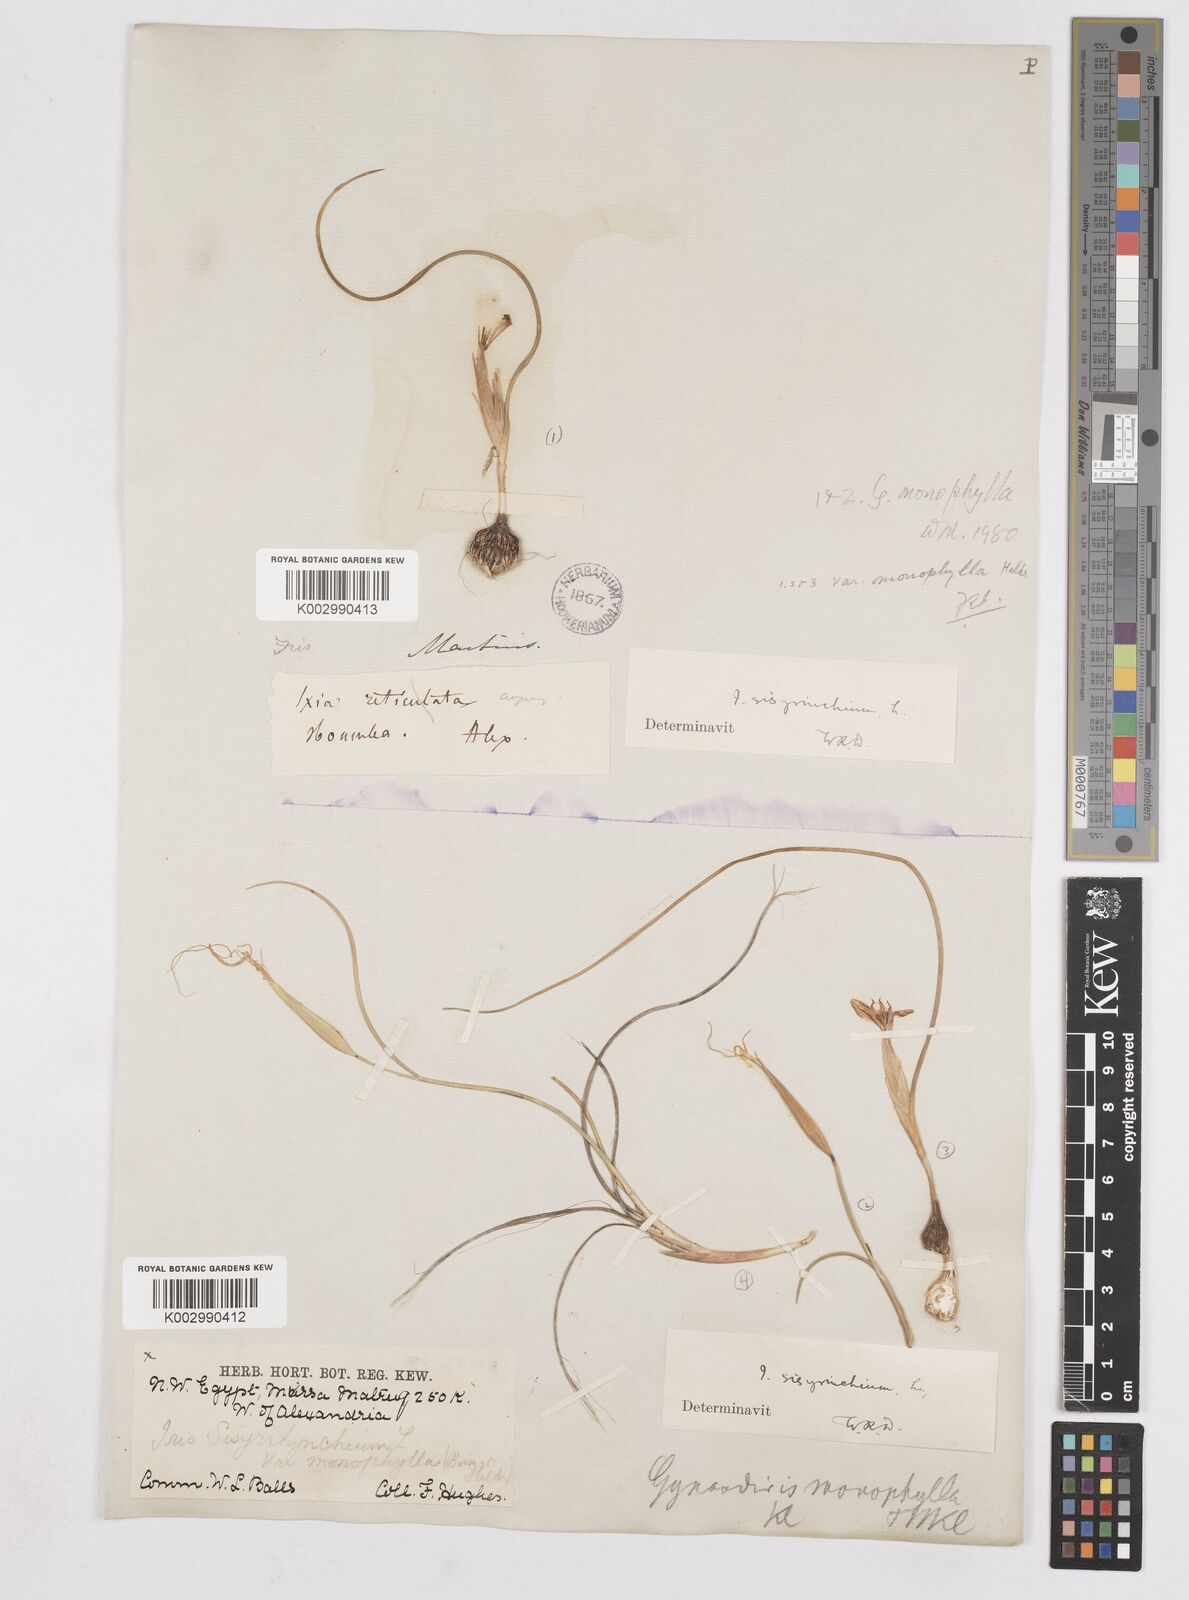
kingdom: Plantae
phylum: Tracheophyta
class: Liliopsida
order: Asparagales
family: Iridaceae
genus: Moraea
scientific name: Moraea
